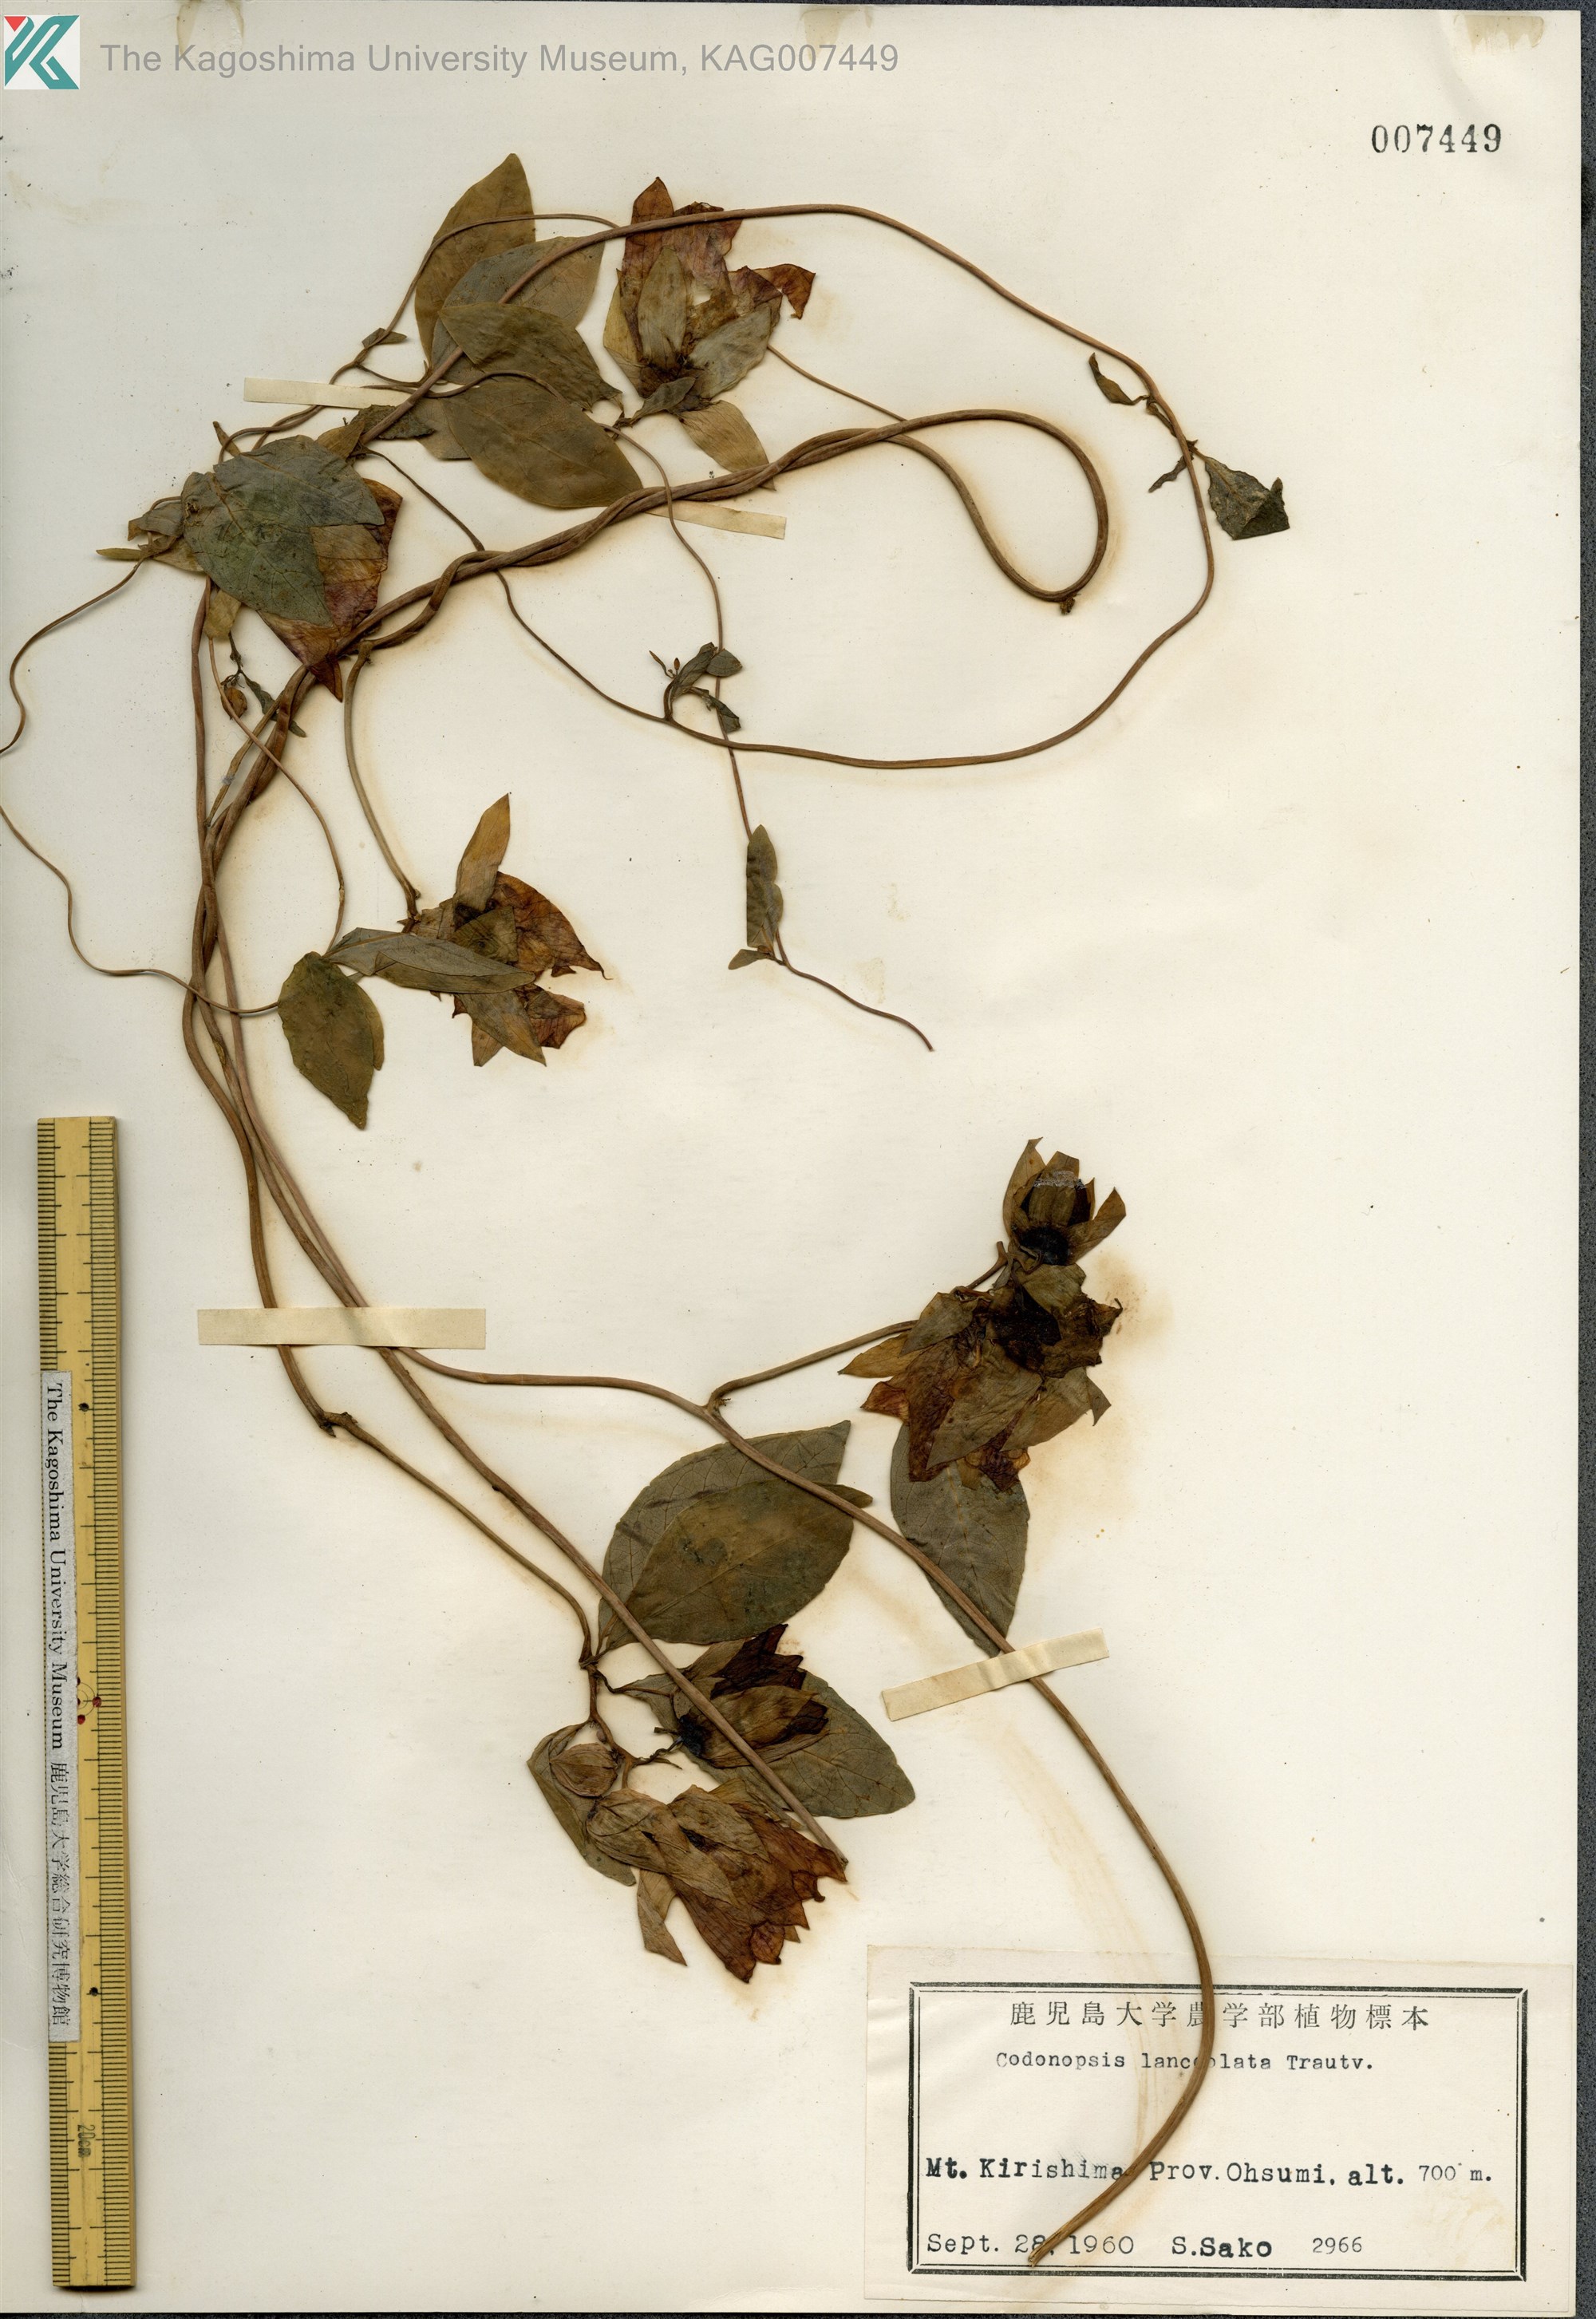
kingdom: Plantae
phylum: Tracheophyta
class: Magnoliopsida
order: Asterales
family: Campanulaceae
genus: Codonopsis
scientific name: Codonopsis lanceolata
